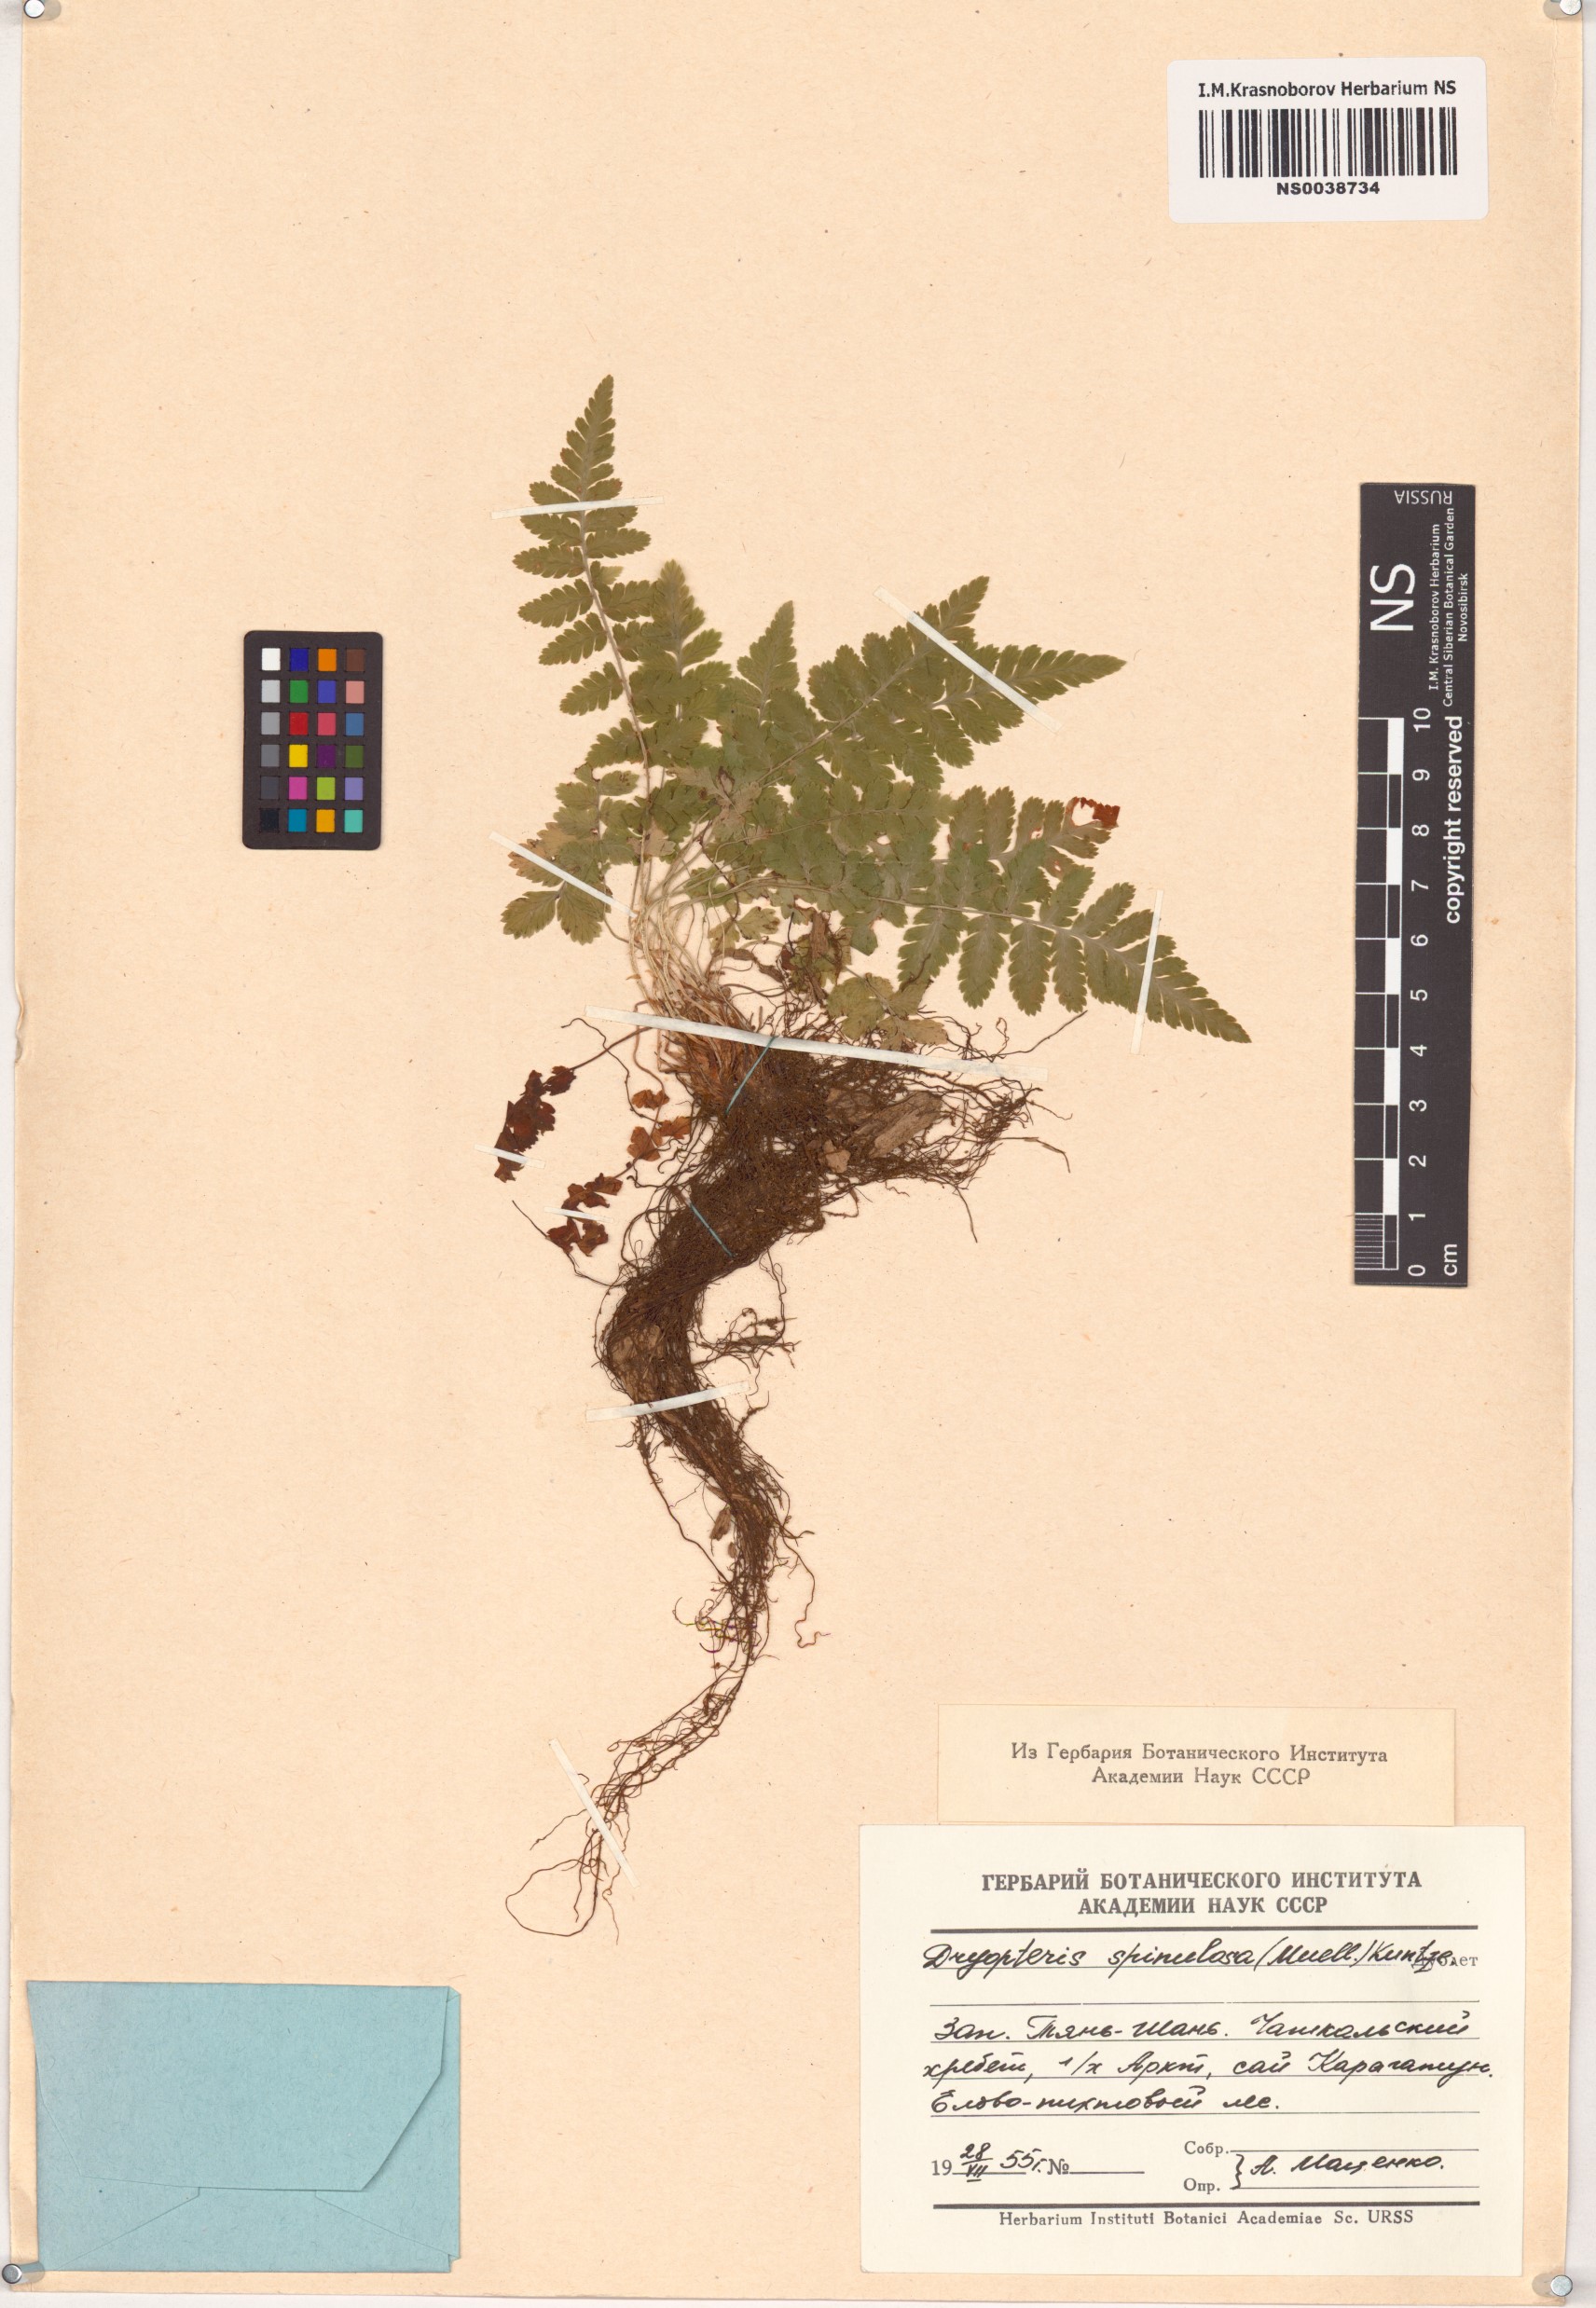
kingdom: Plantae
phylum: Tracheophyta
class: Polypodiopsida
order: Polypodiales
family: Dryopteridaceae
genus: Dryopteris
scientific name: Dryopteris carthusiana
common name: Narrow buckler-fern
